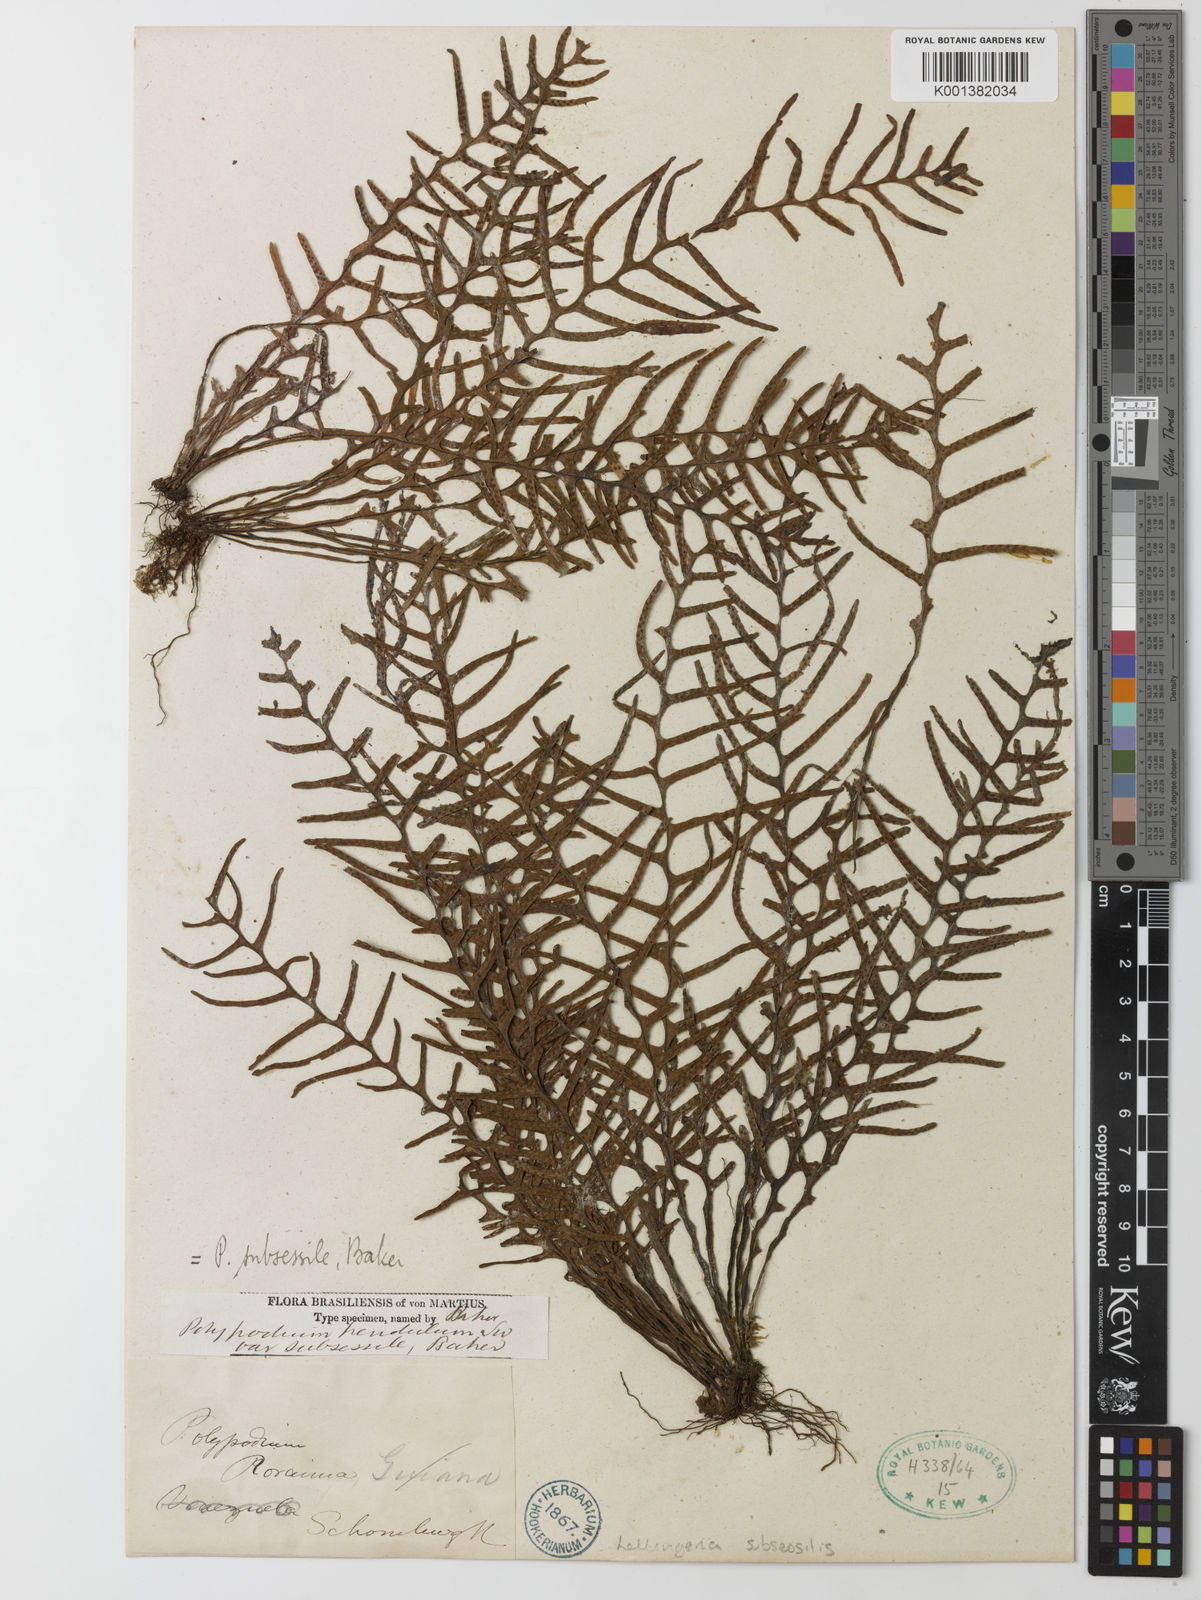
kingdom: Plantae
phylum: Tracheophyta
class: Polypodiopsida
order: Polypodiales
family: Polypodiaceae
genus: Lellingeria
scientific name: Lellingeria subsessilis
